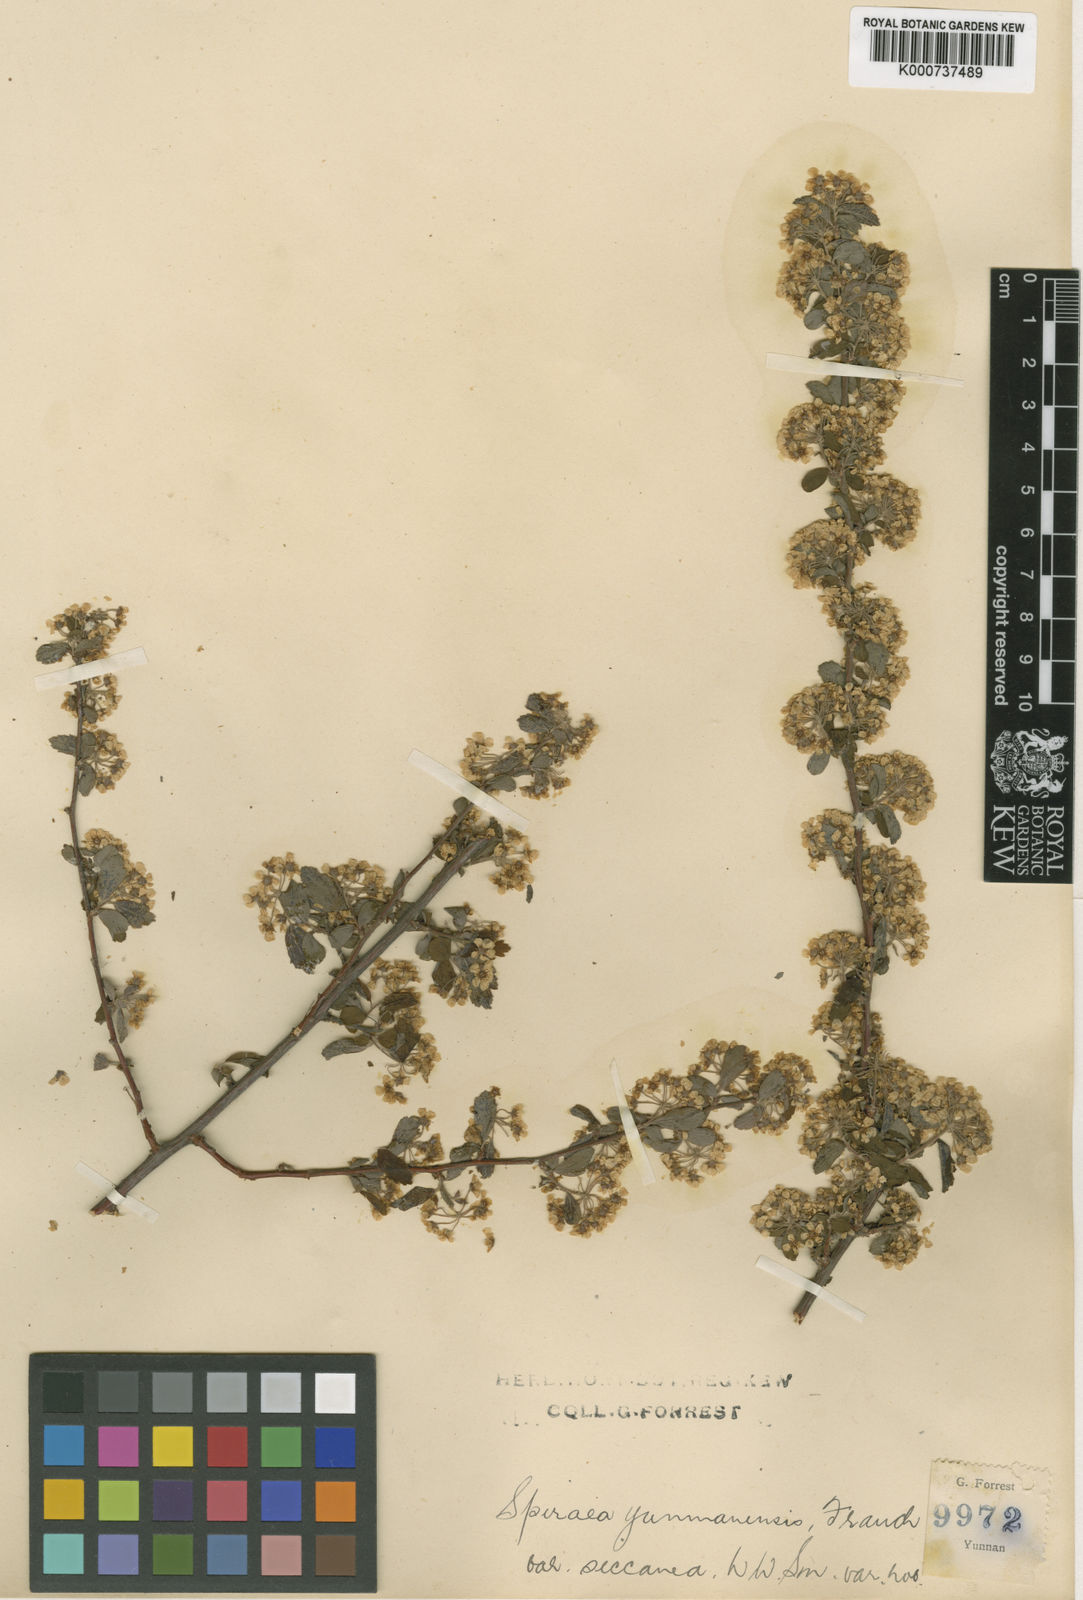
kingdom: Plantae
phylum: Tracheophyta
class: Magnoliopsida
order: Rosales
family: Rosaceae
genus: Spiraea
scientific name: Spiraea yunnanensis
